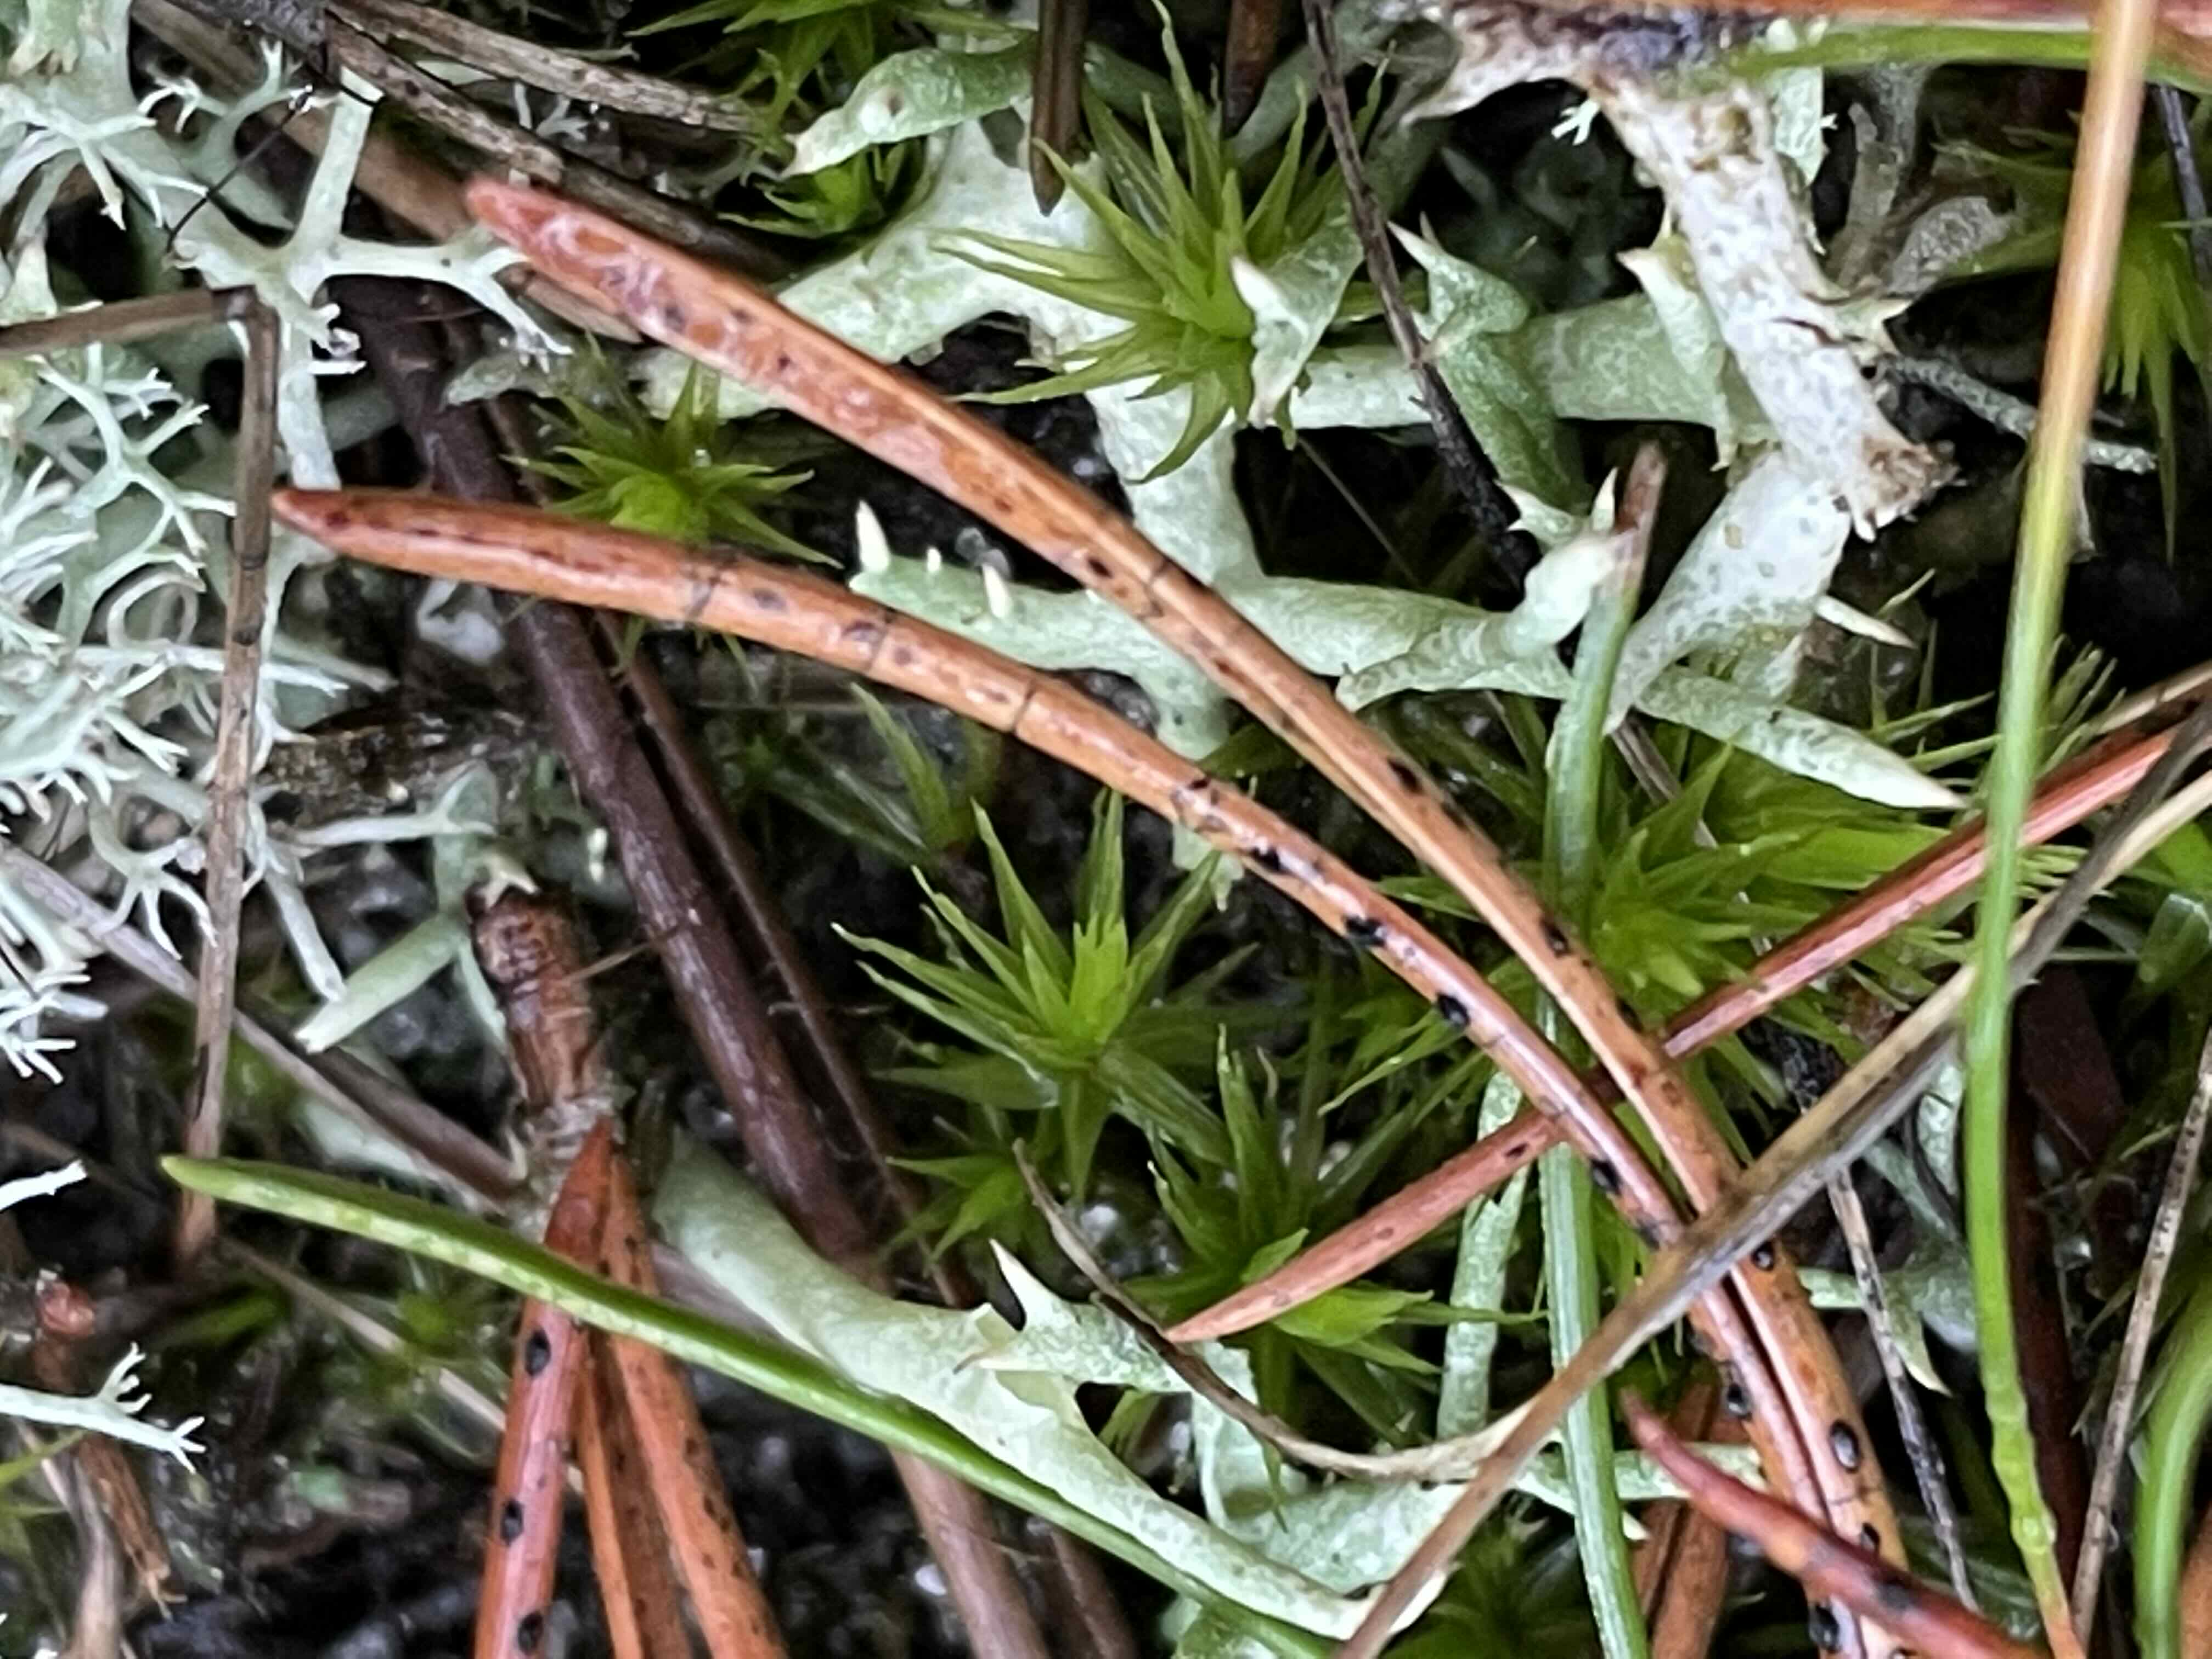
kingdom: Fungi
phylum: Ascomycota
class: Leotiomycetes
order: Rhytismatales
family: Rhytismataceae
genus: Lophodermium
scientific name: Lophodermium pinastri
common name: fyrre-fureplet
